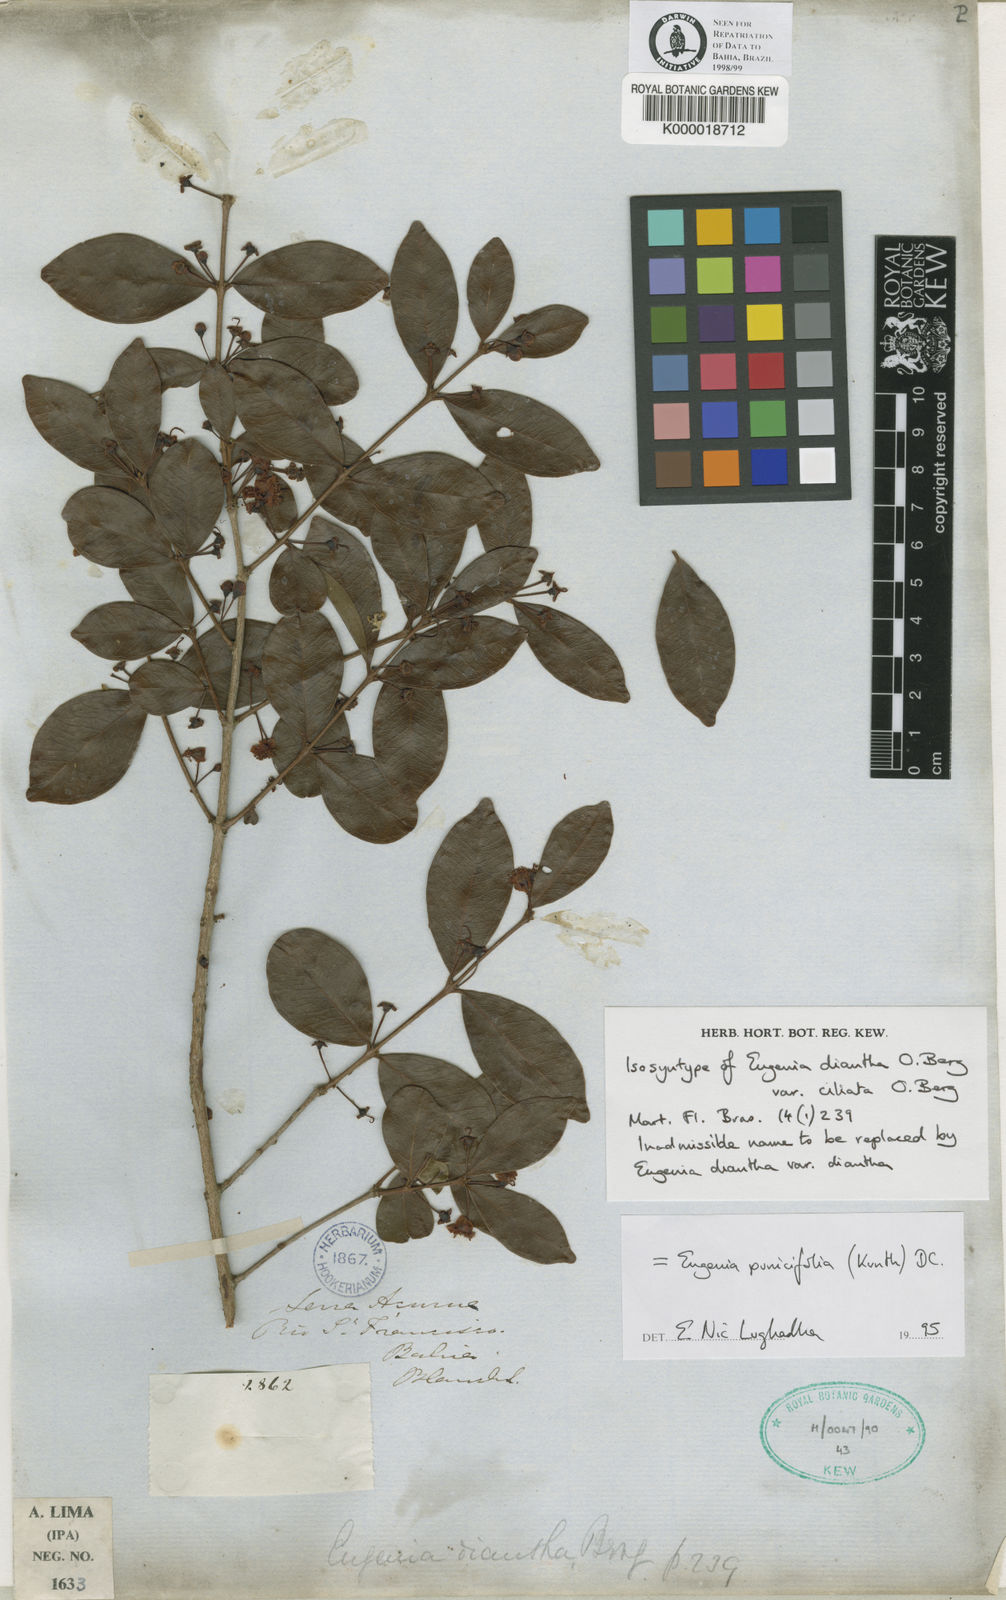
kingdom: Plantae
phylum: Tracheophyta
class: Magnoliopsida
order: Myrtales
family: Myrtaceae
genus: Eugenia
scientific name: Eugenia punicifolia
